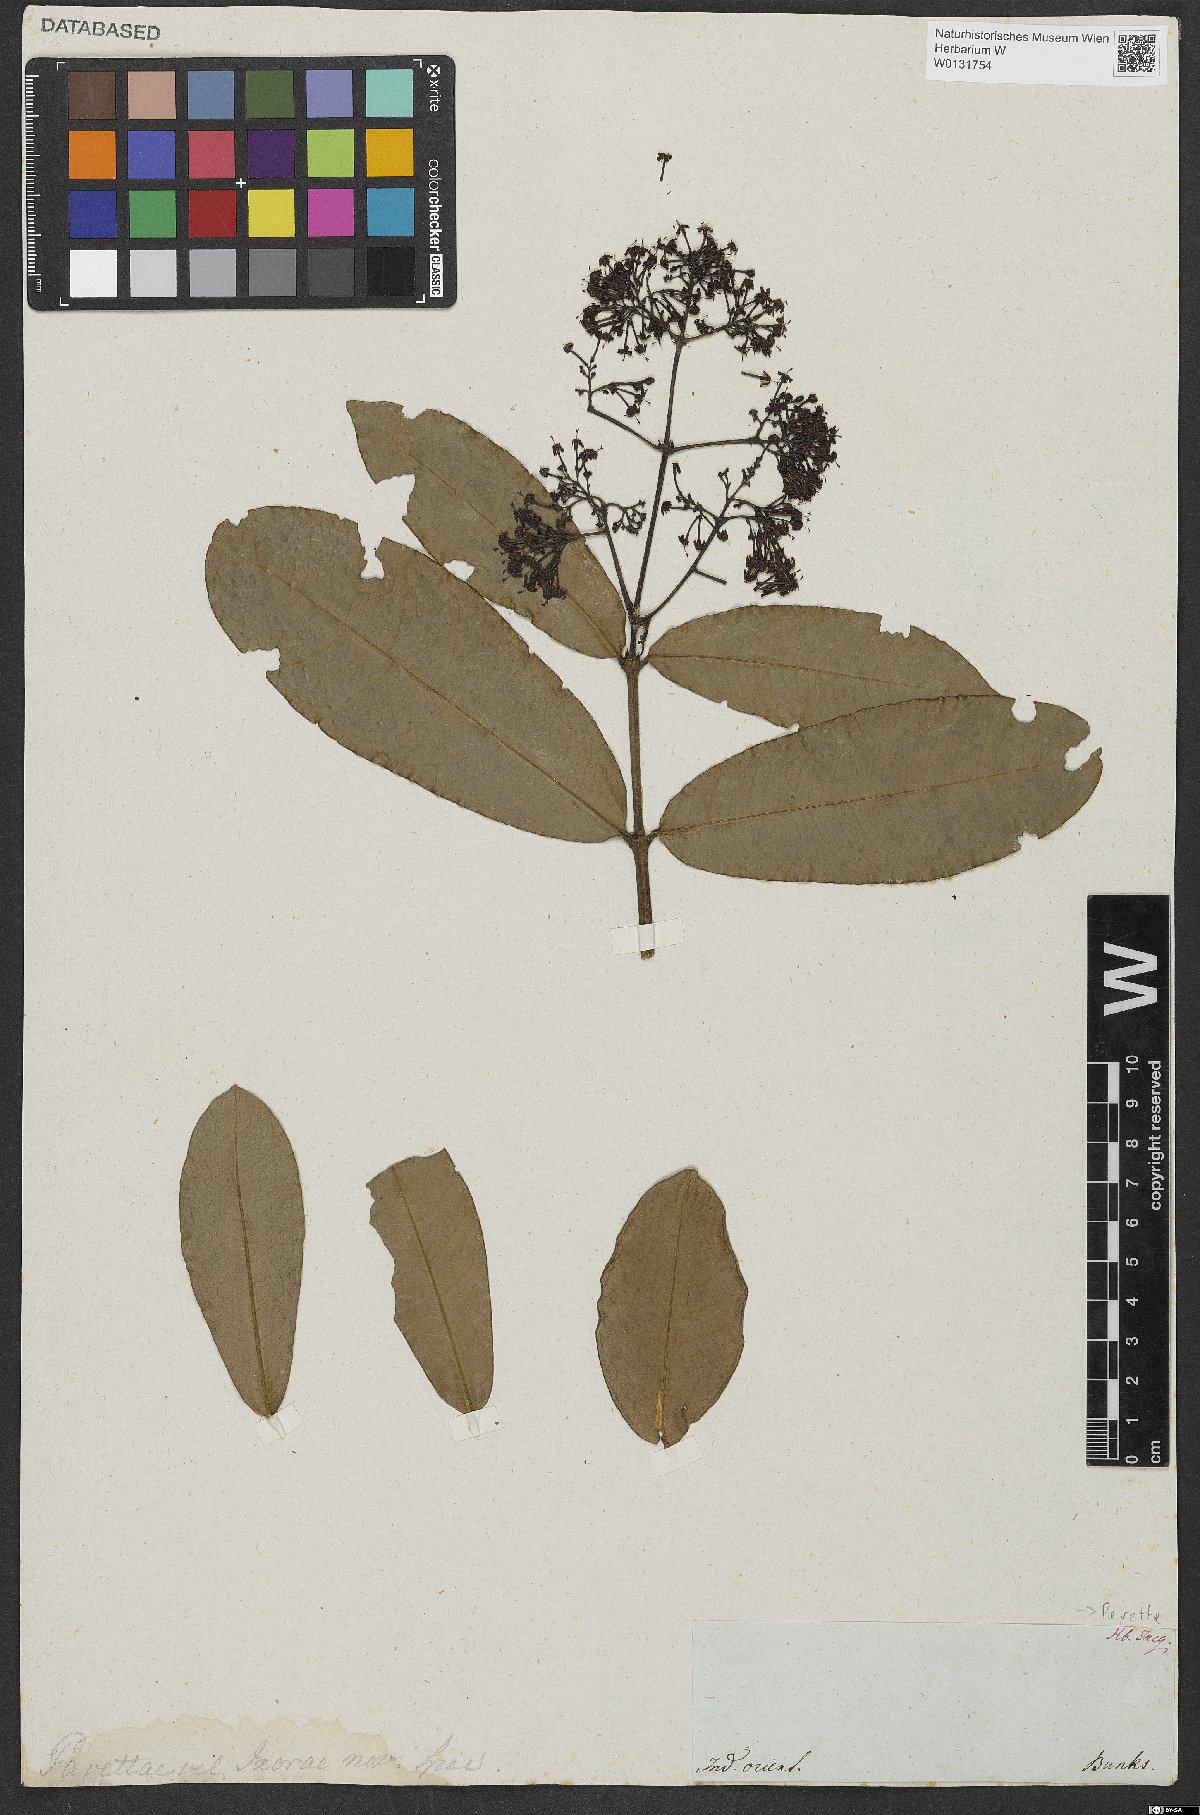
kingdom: Plantae
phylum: Tracheophyta
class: Magnoliopsida
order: Gentianales
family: Rubiaceae
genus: Pavetta
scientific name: Pavetta
